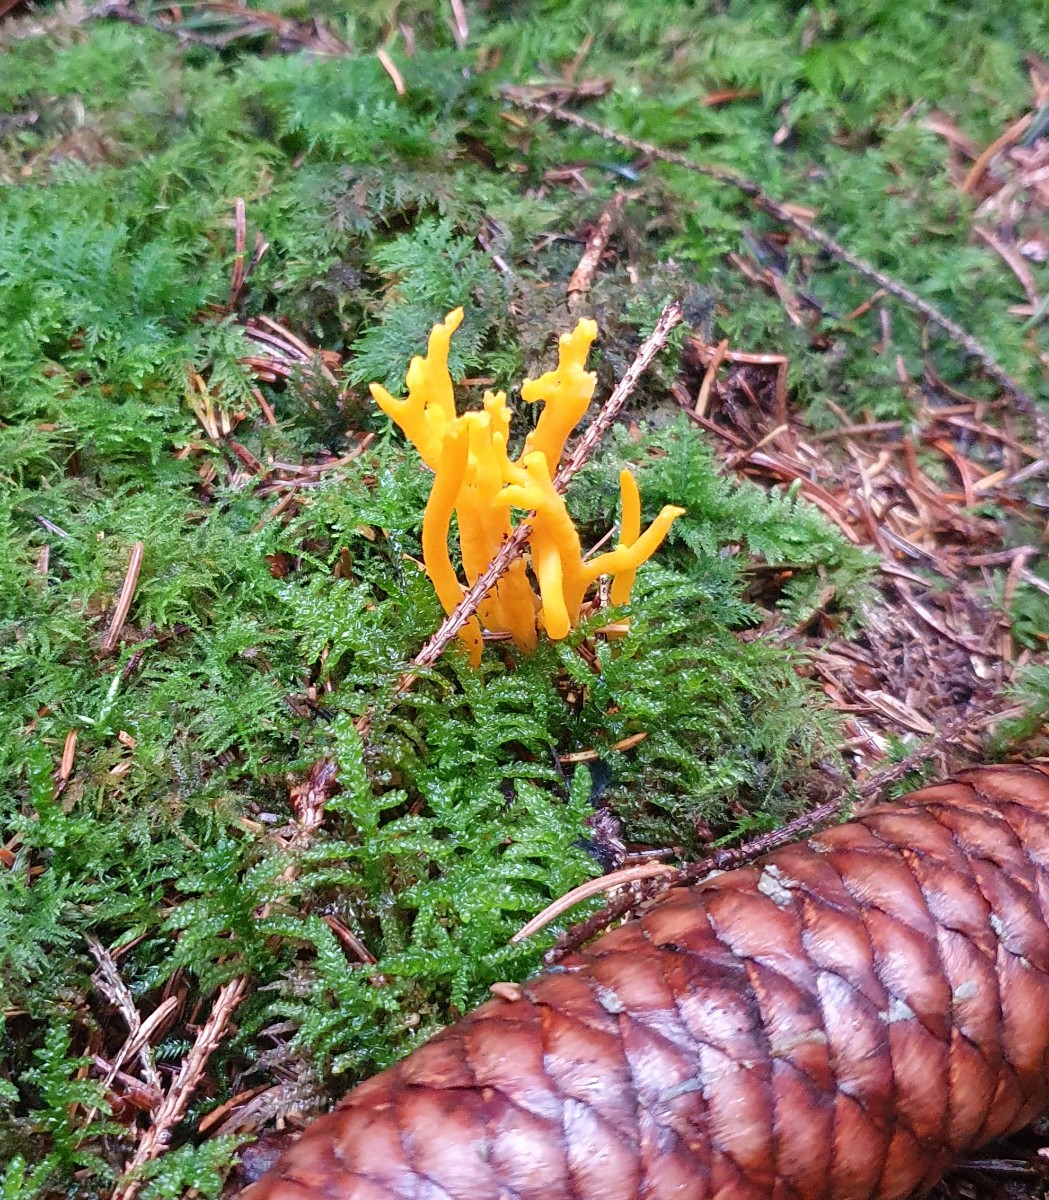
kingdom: Fungi
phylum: Basidiomycota
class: Dacrymycetes
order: Dacrymycetales
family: Dacrymycetaceae
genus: Calocera
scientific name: Calocera viscosa
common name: almindelig guldgaffel
